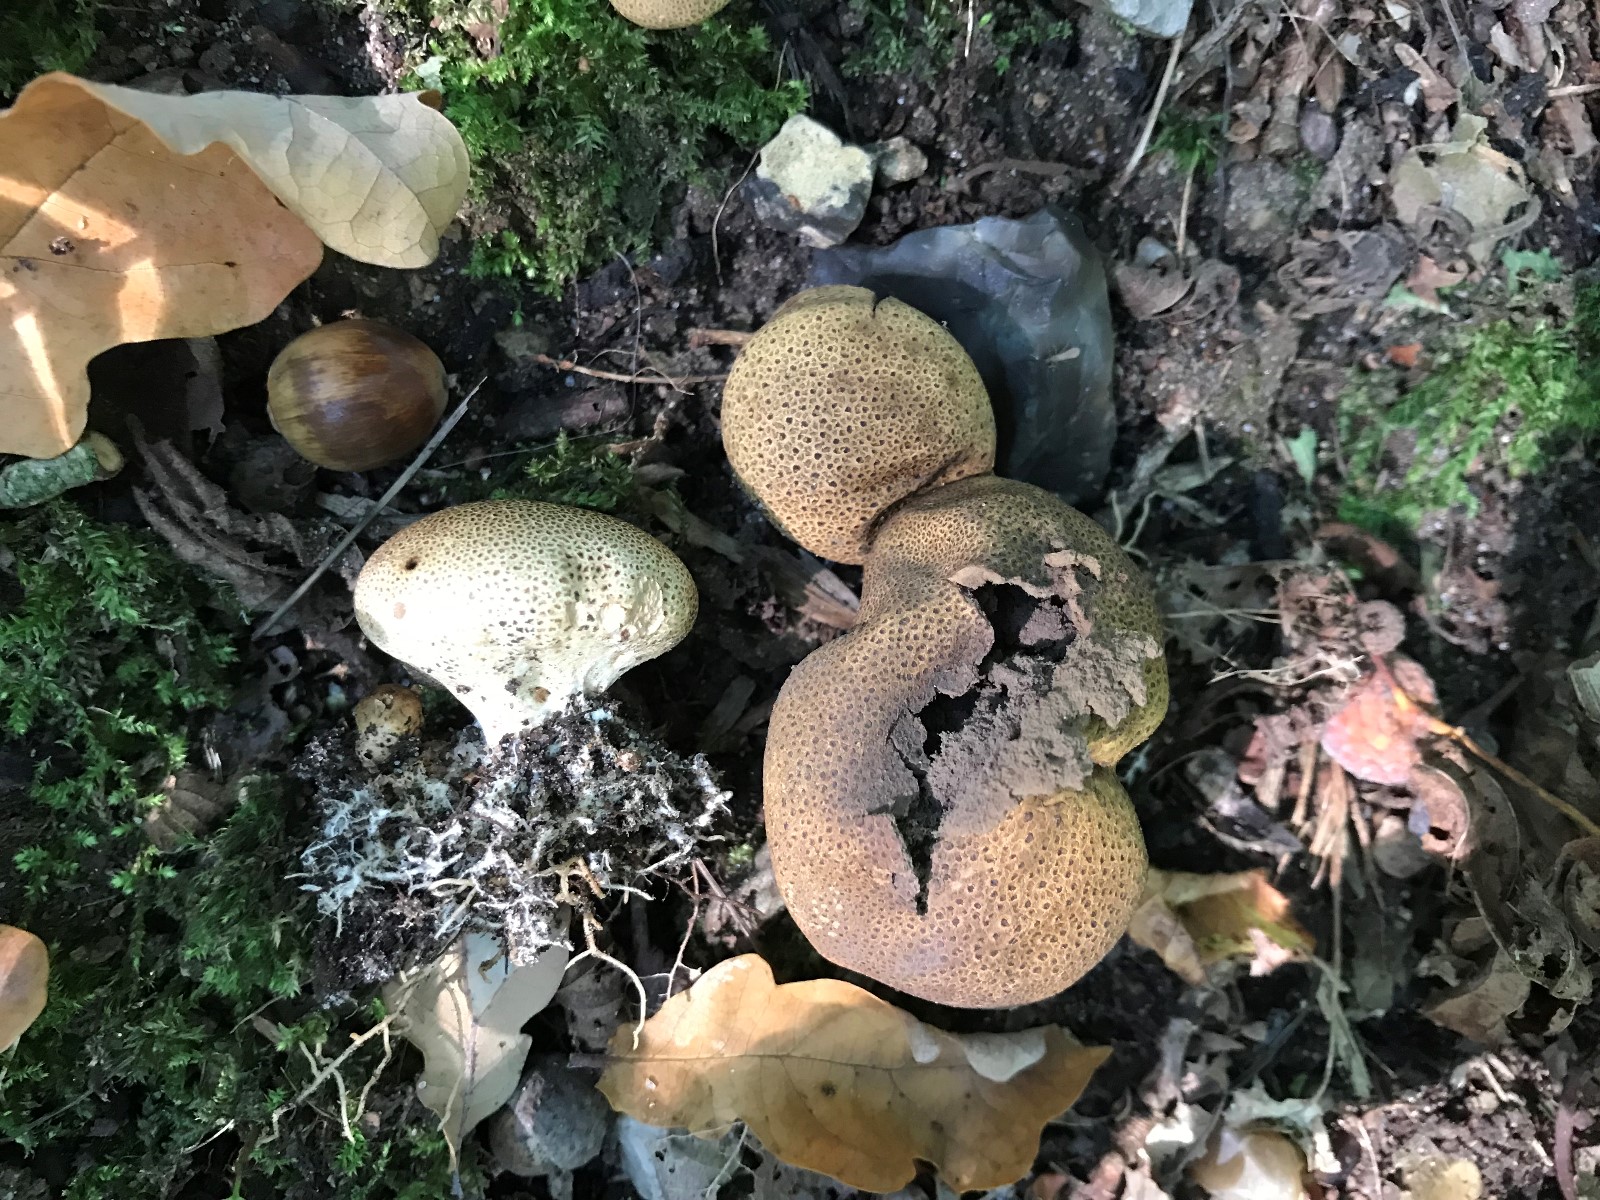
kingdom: Fungi
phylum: Basidiomycota
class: Agaricomycetes
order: Boletales
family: Sclerodermataceae
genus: Scleroderma
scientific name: Scleroderma areolatum
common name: plettet bruskbold
